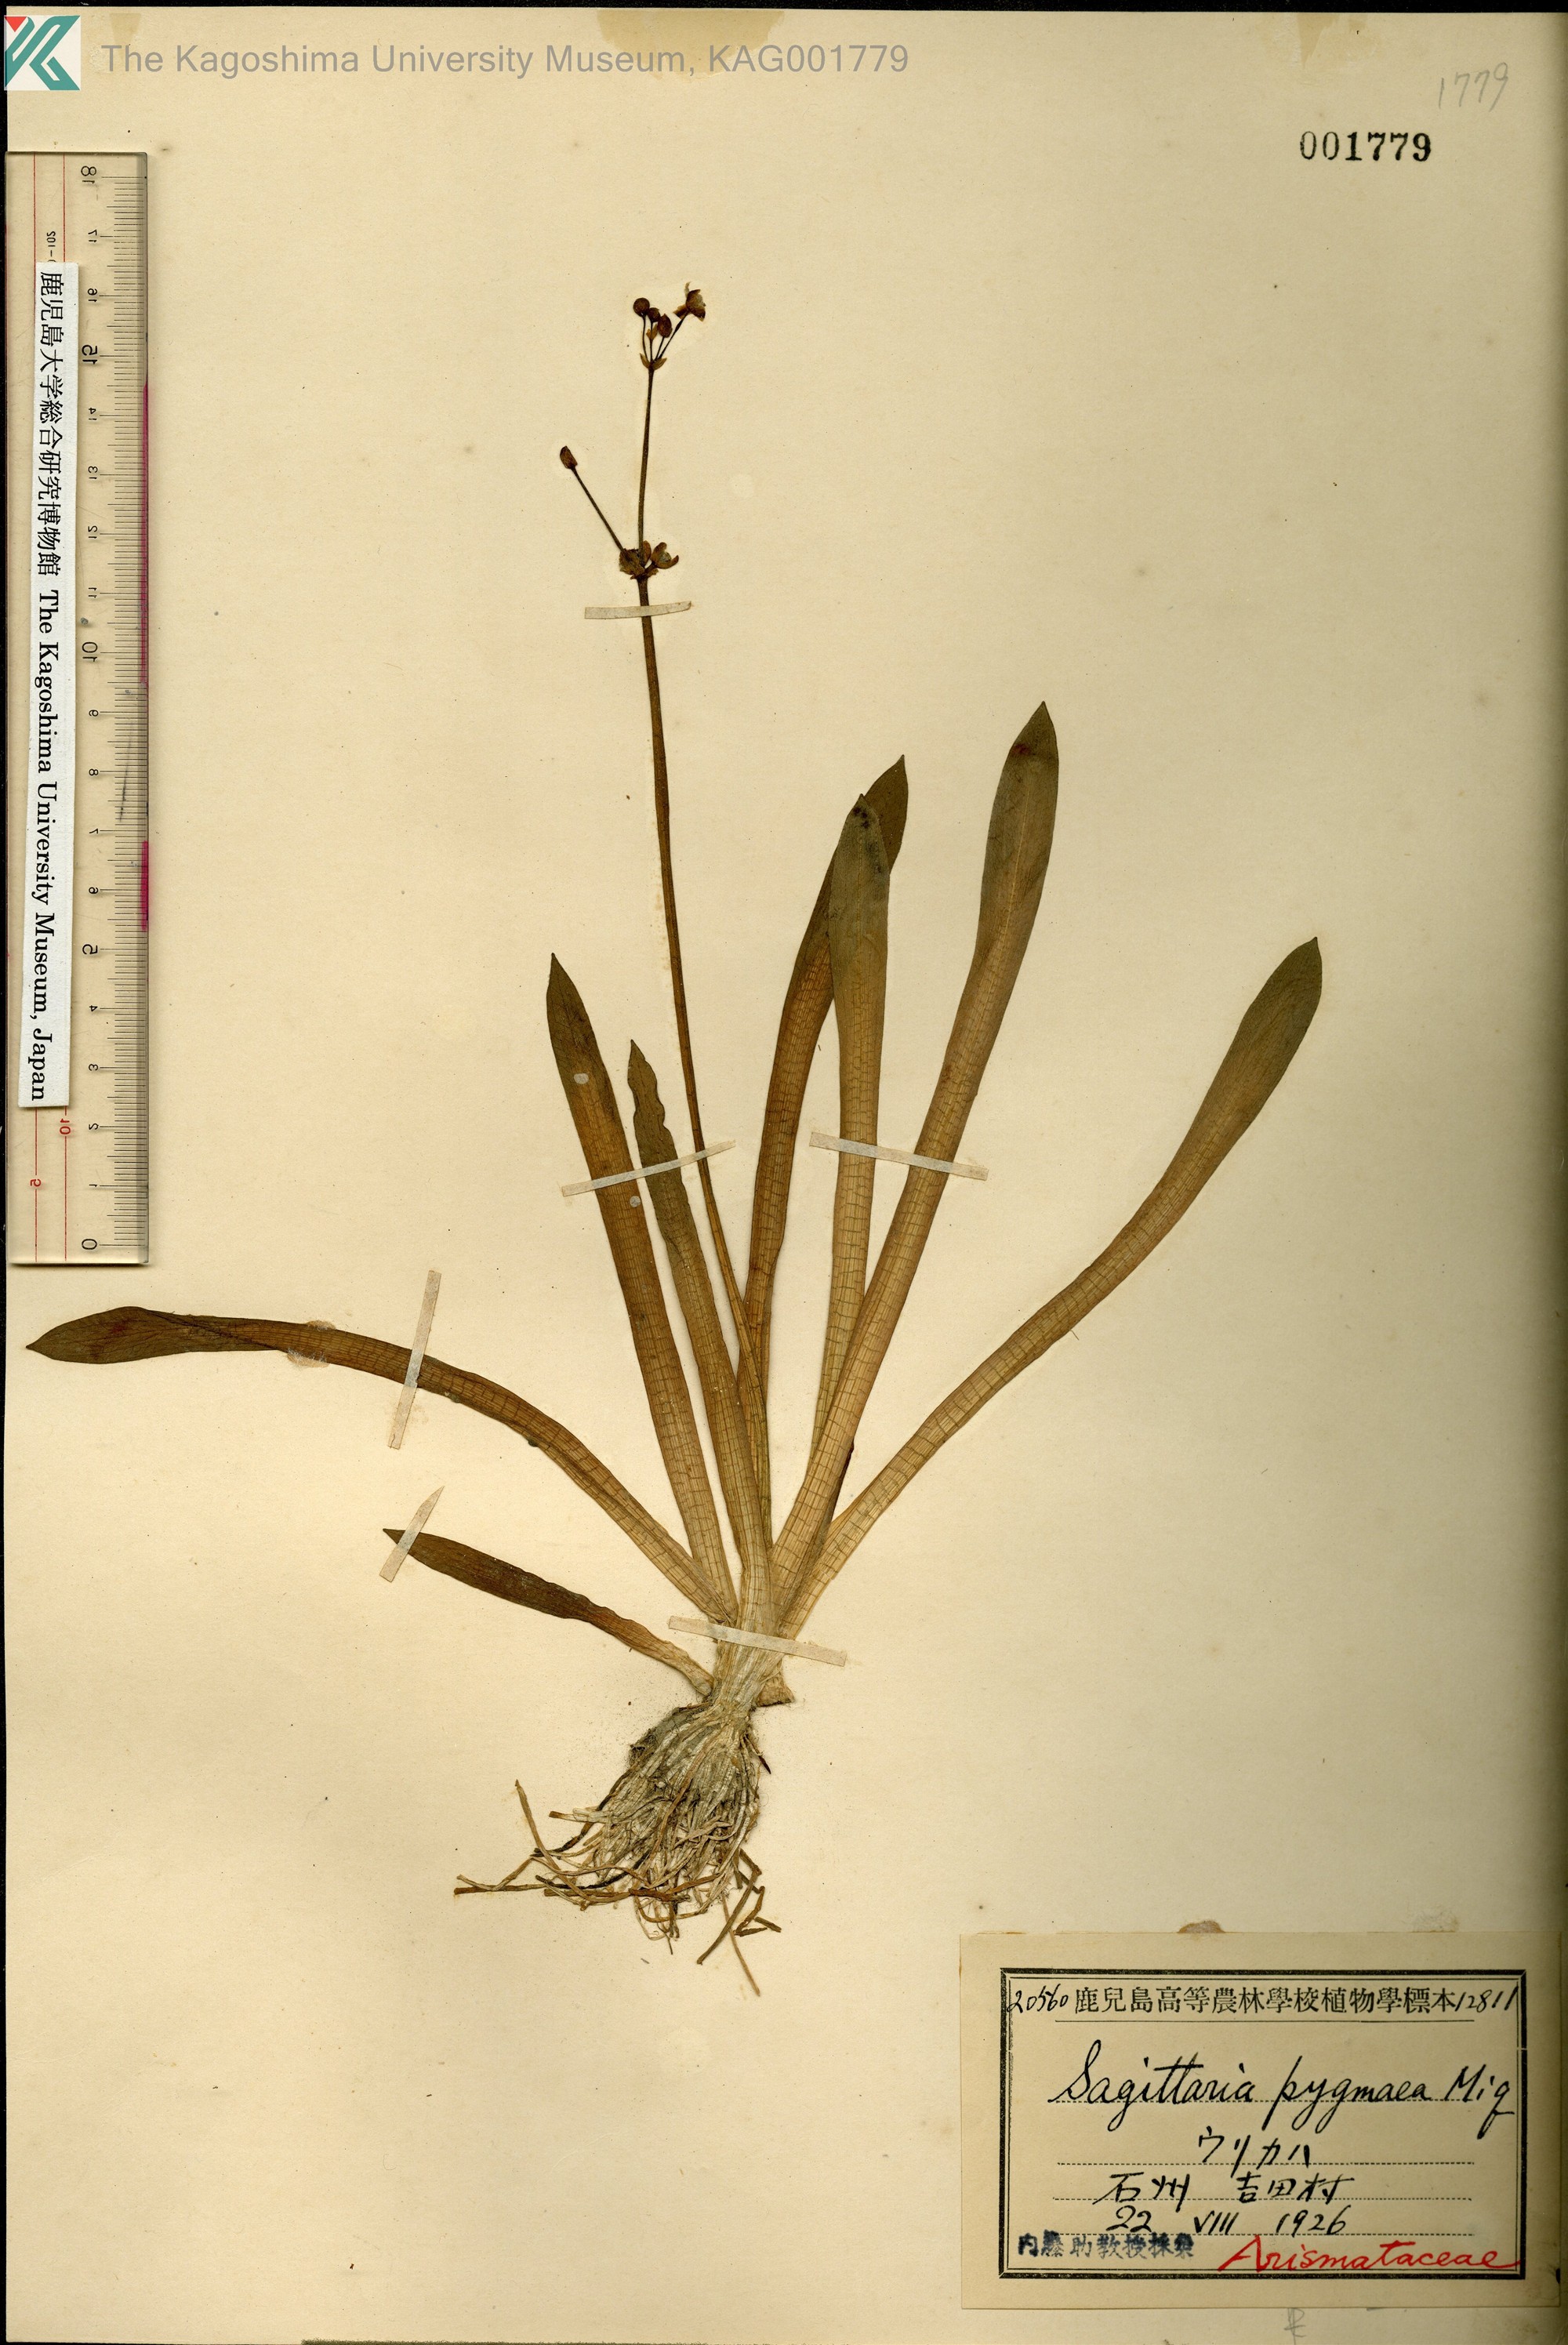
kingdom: Plantae
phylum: Tracheophyta
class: Liliopsida
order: Alismatales
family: Alismataceae
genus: Sagittaria
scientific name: Sagittaria pygmaea
